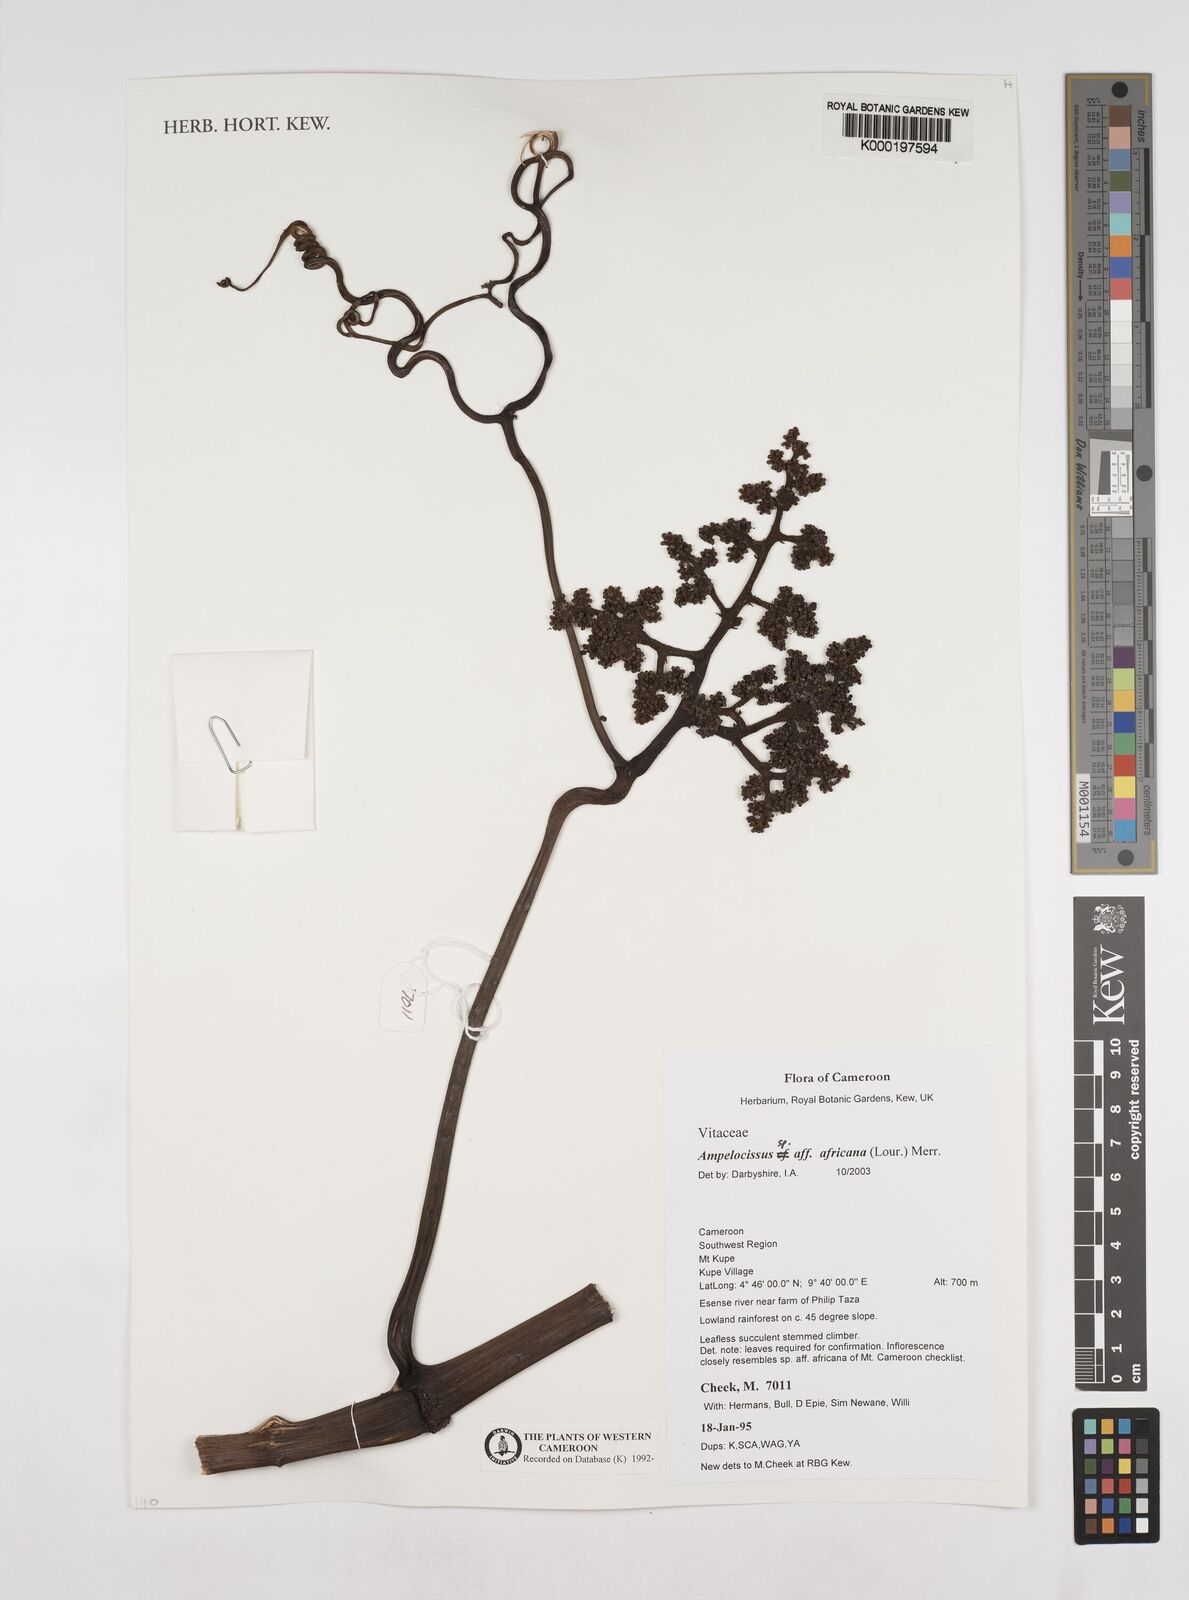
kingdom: Plantae
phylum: Tracheophyta
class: Magnoliopsida
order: Vitales
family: Vitaceae
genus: Ampelocissus
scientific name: Ampelocissus africana
